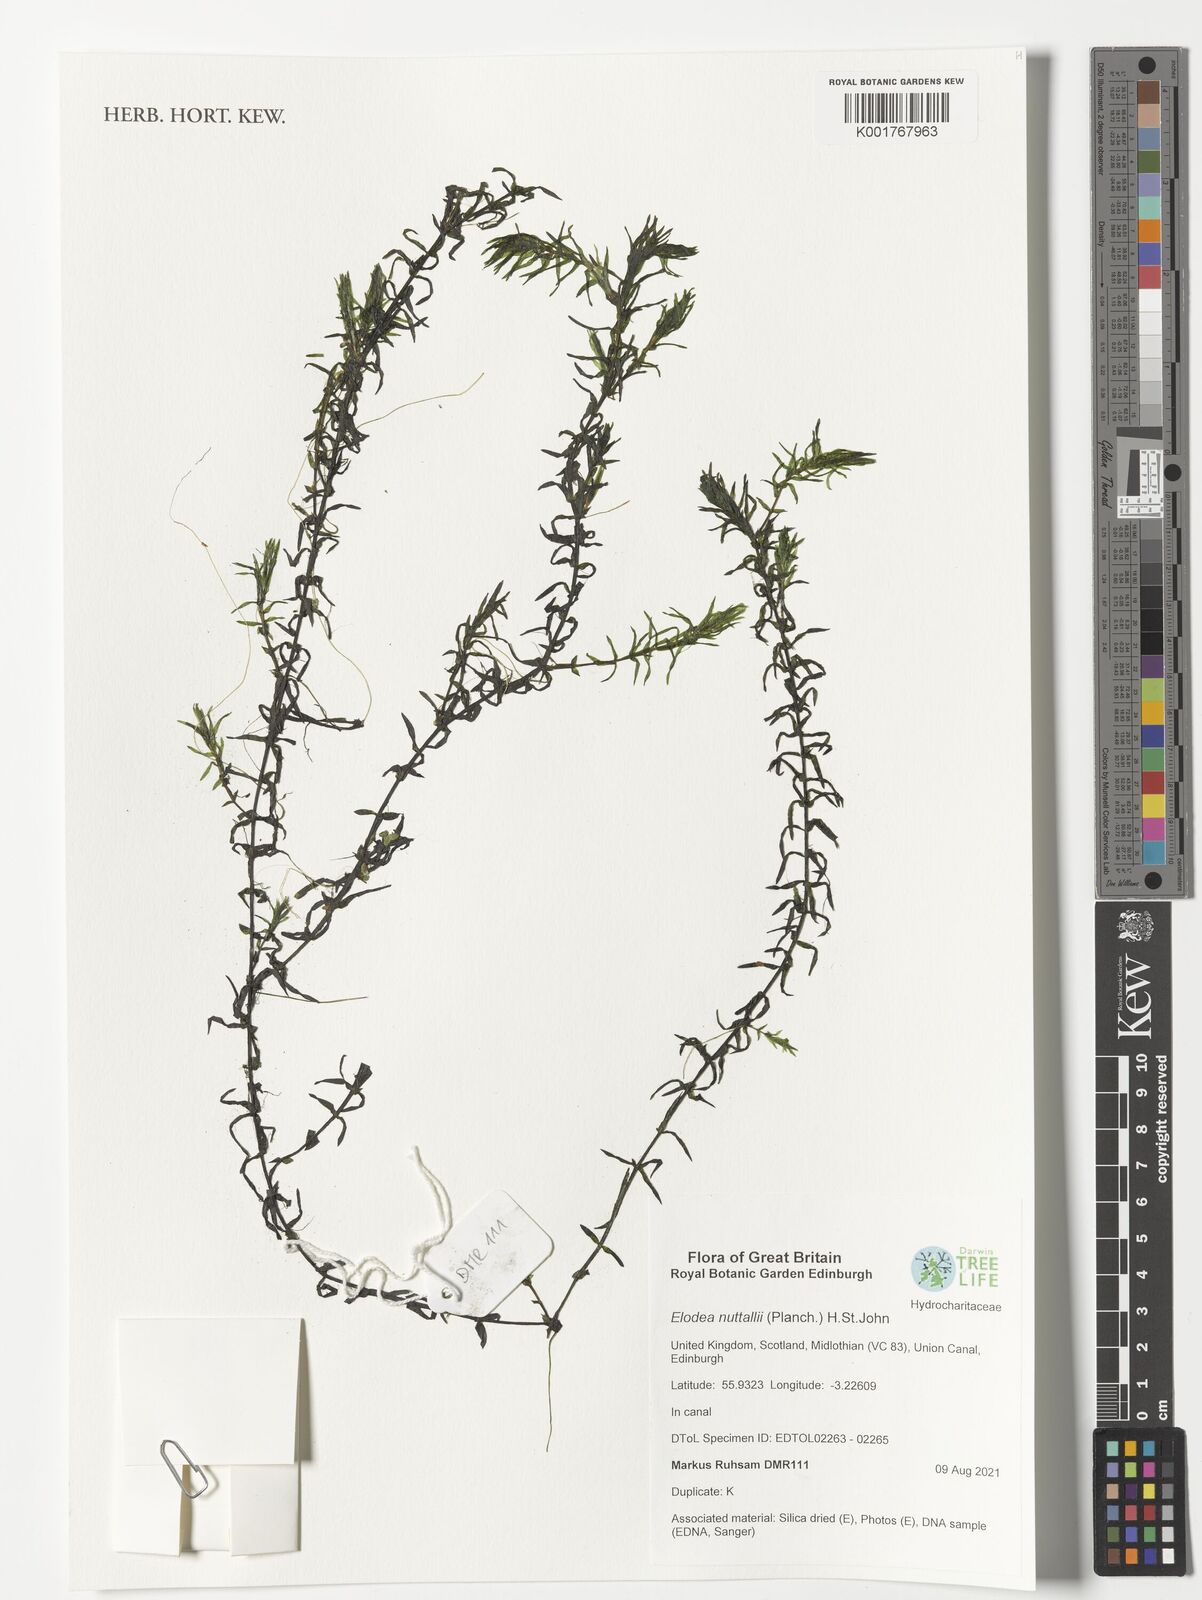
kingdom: Plantae
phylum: Tracheophyta
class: Liliopsida
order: Alismatales
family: Hydrocharitaceae
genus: Elodea
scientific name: Elodea nuttallii
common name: Nuttall's waterweed
